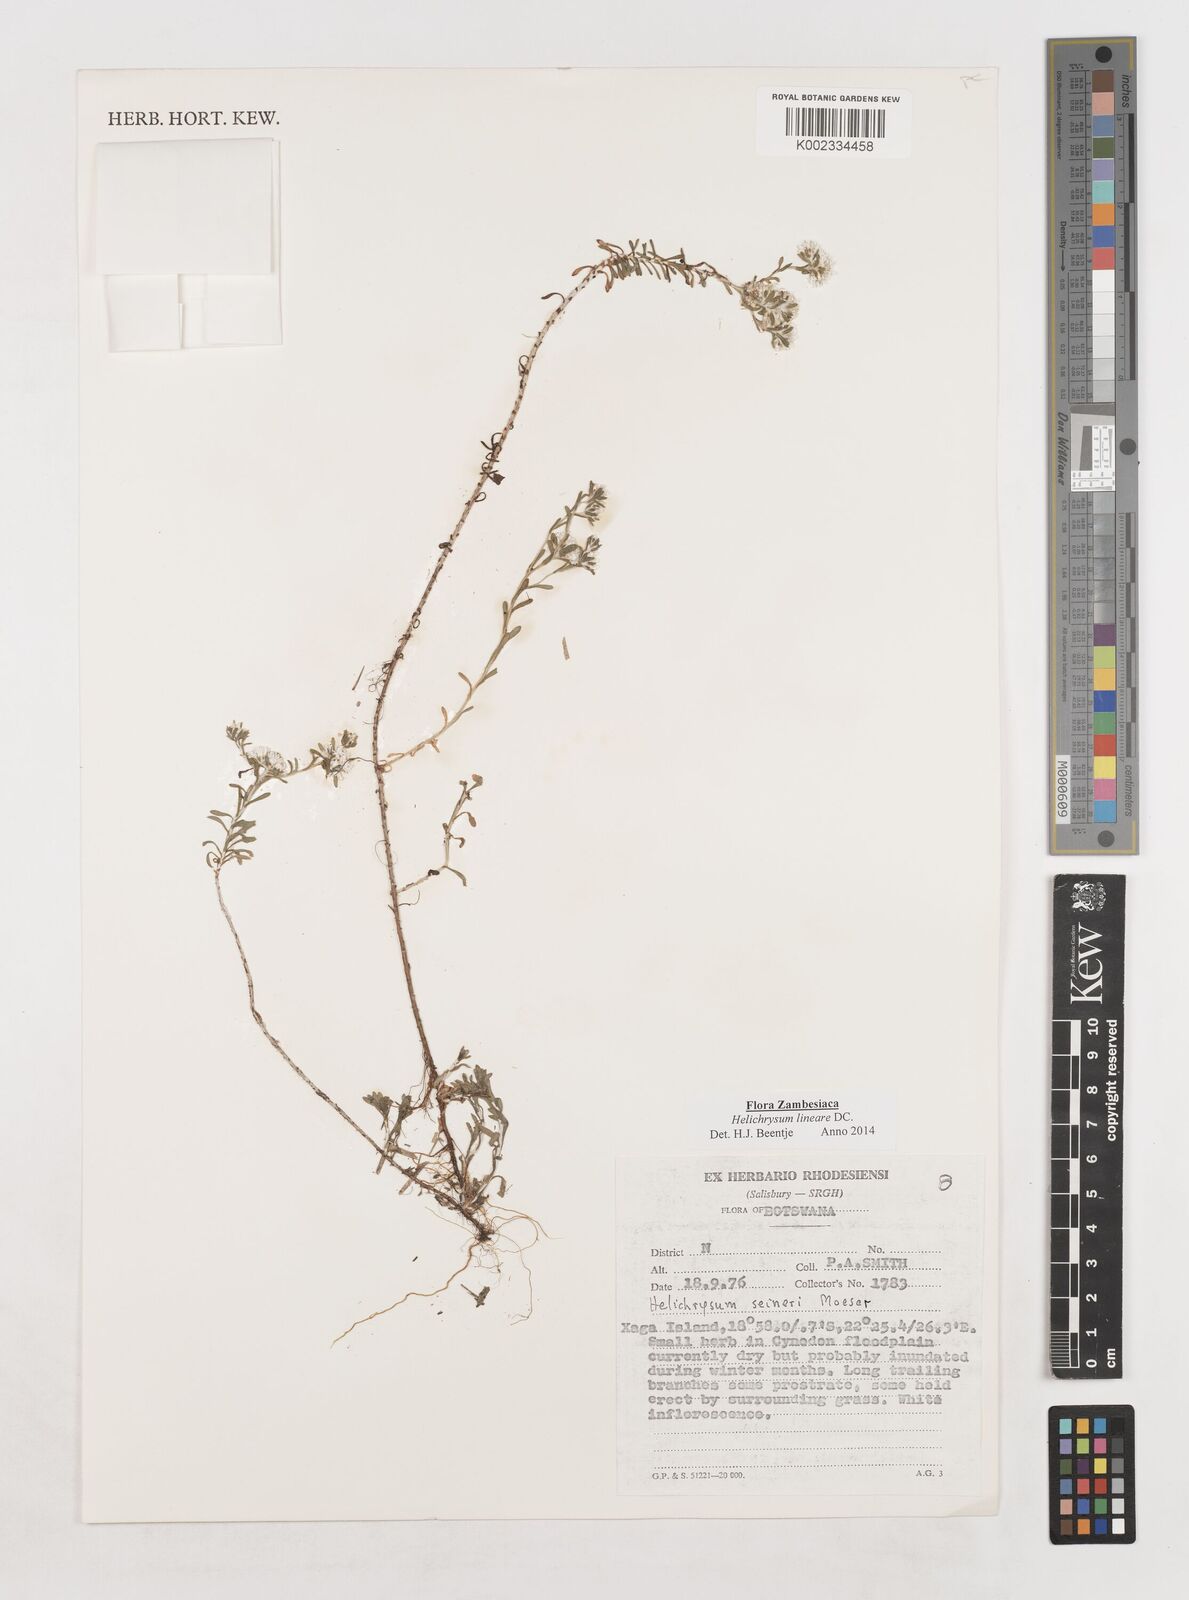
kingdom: Plantae
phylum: Tracheophyta
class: Magnoliopsida
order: Asterales
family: Asteraceae
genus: Helichrysum
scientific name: Helichrysum lineare
